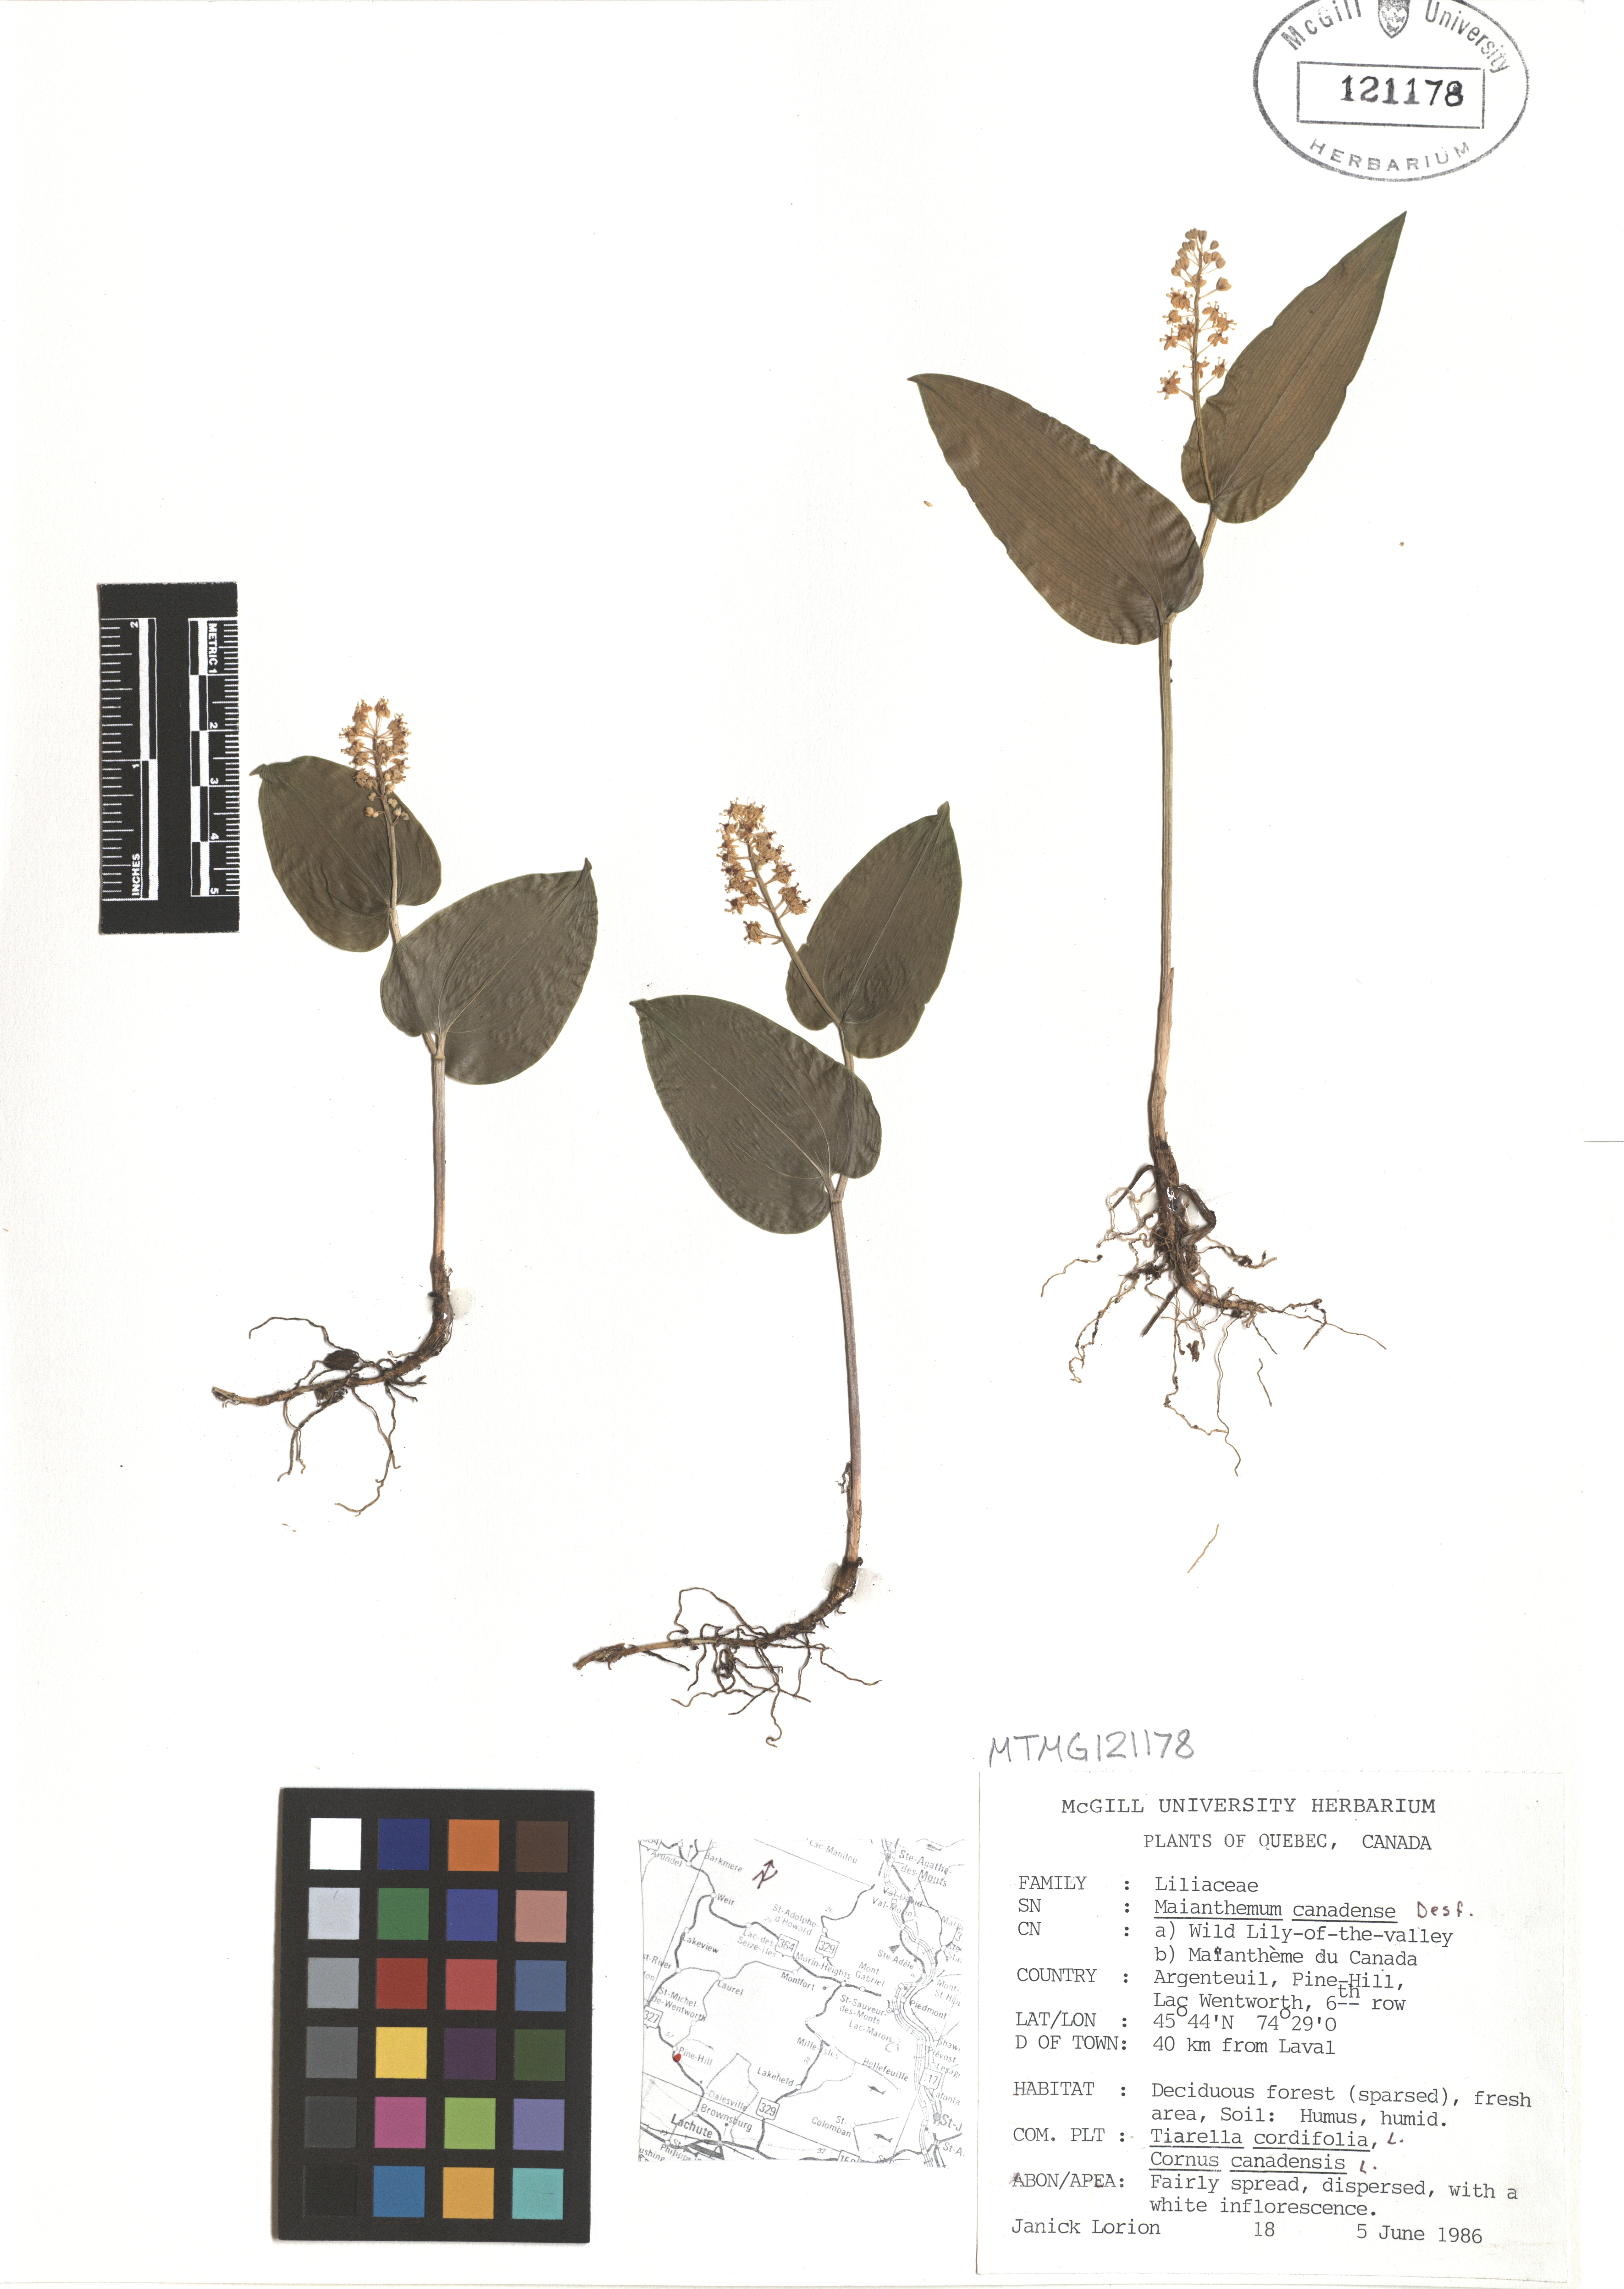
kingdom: Plantae
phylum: Tracheophyta
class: Liliopsida
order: Asparagales
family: Asparagaceae
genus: Maianthemum
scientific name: Maianthemum canadense
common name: False lily-of-the-valley
